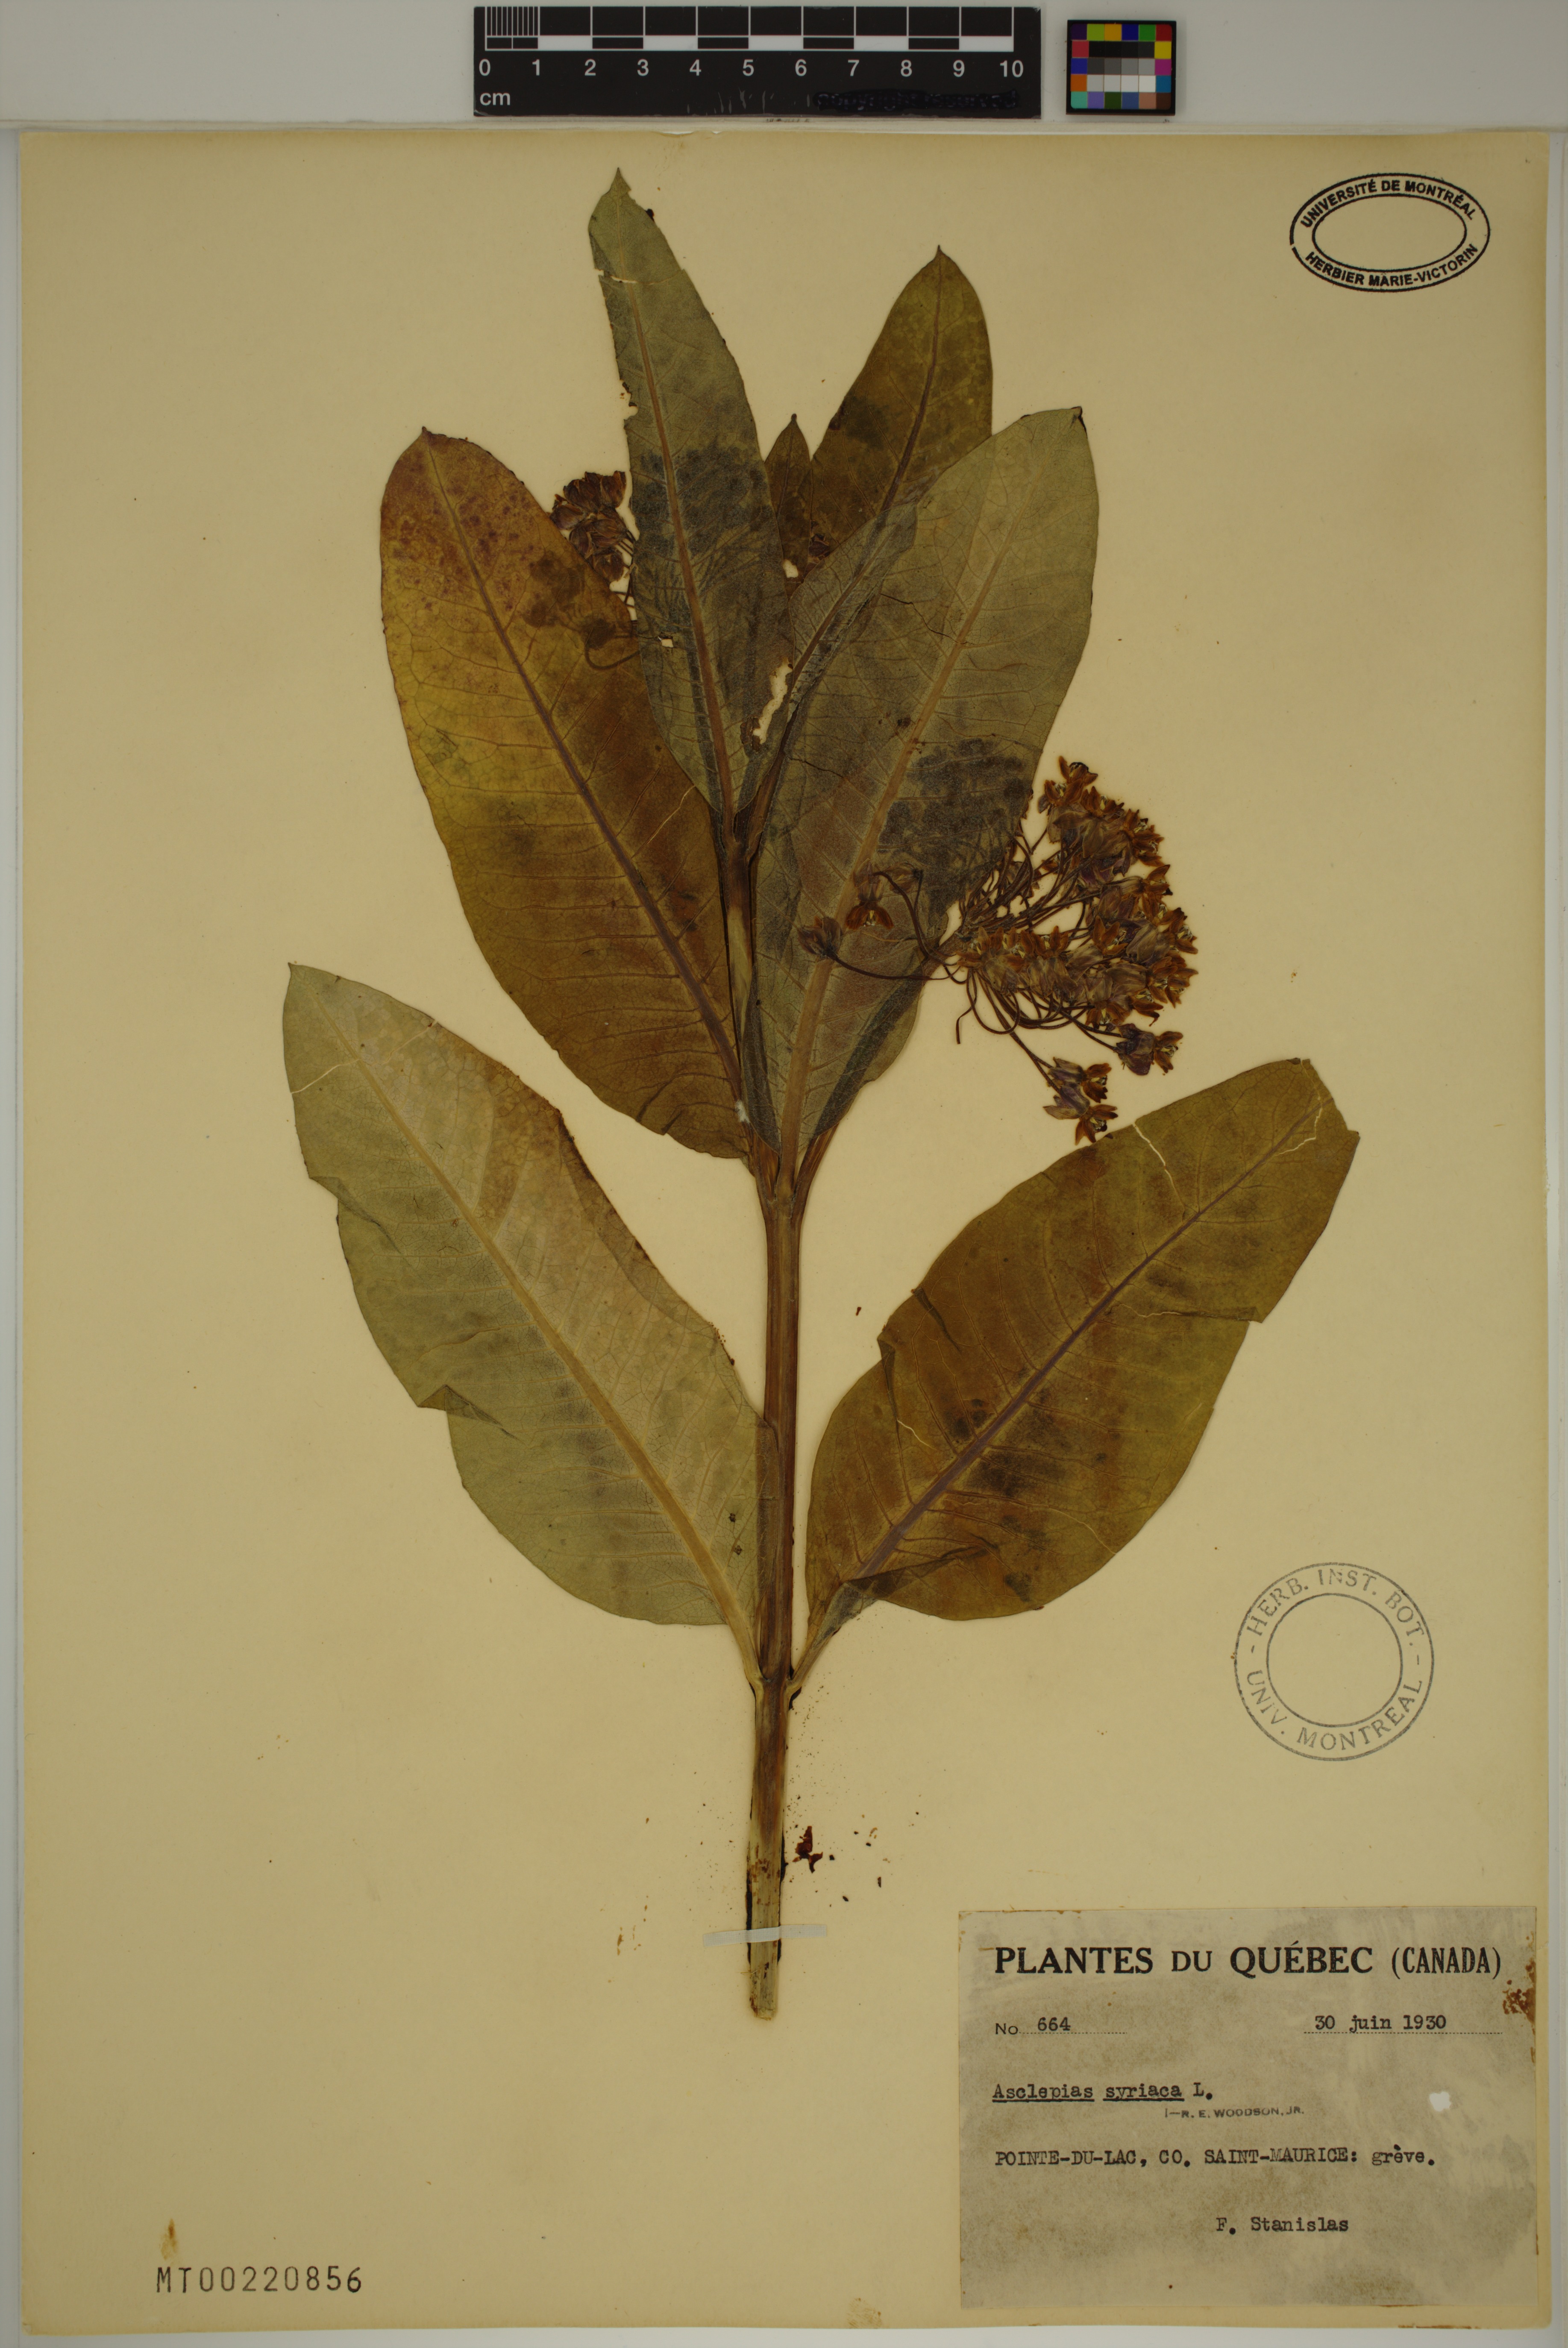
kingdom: Plantae
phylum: Tracheophyta
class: Magnoliopsida
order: Gentianales
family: Apocynaceae
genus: Asclepias
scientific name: Asclepias syriaca
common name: Common milkweed
